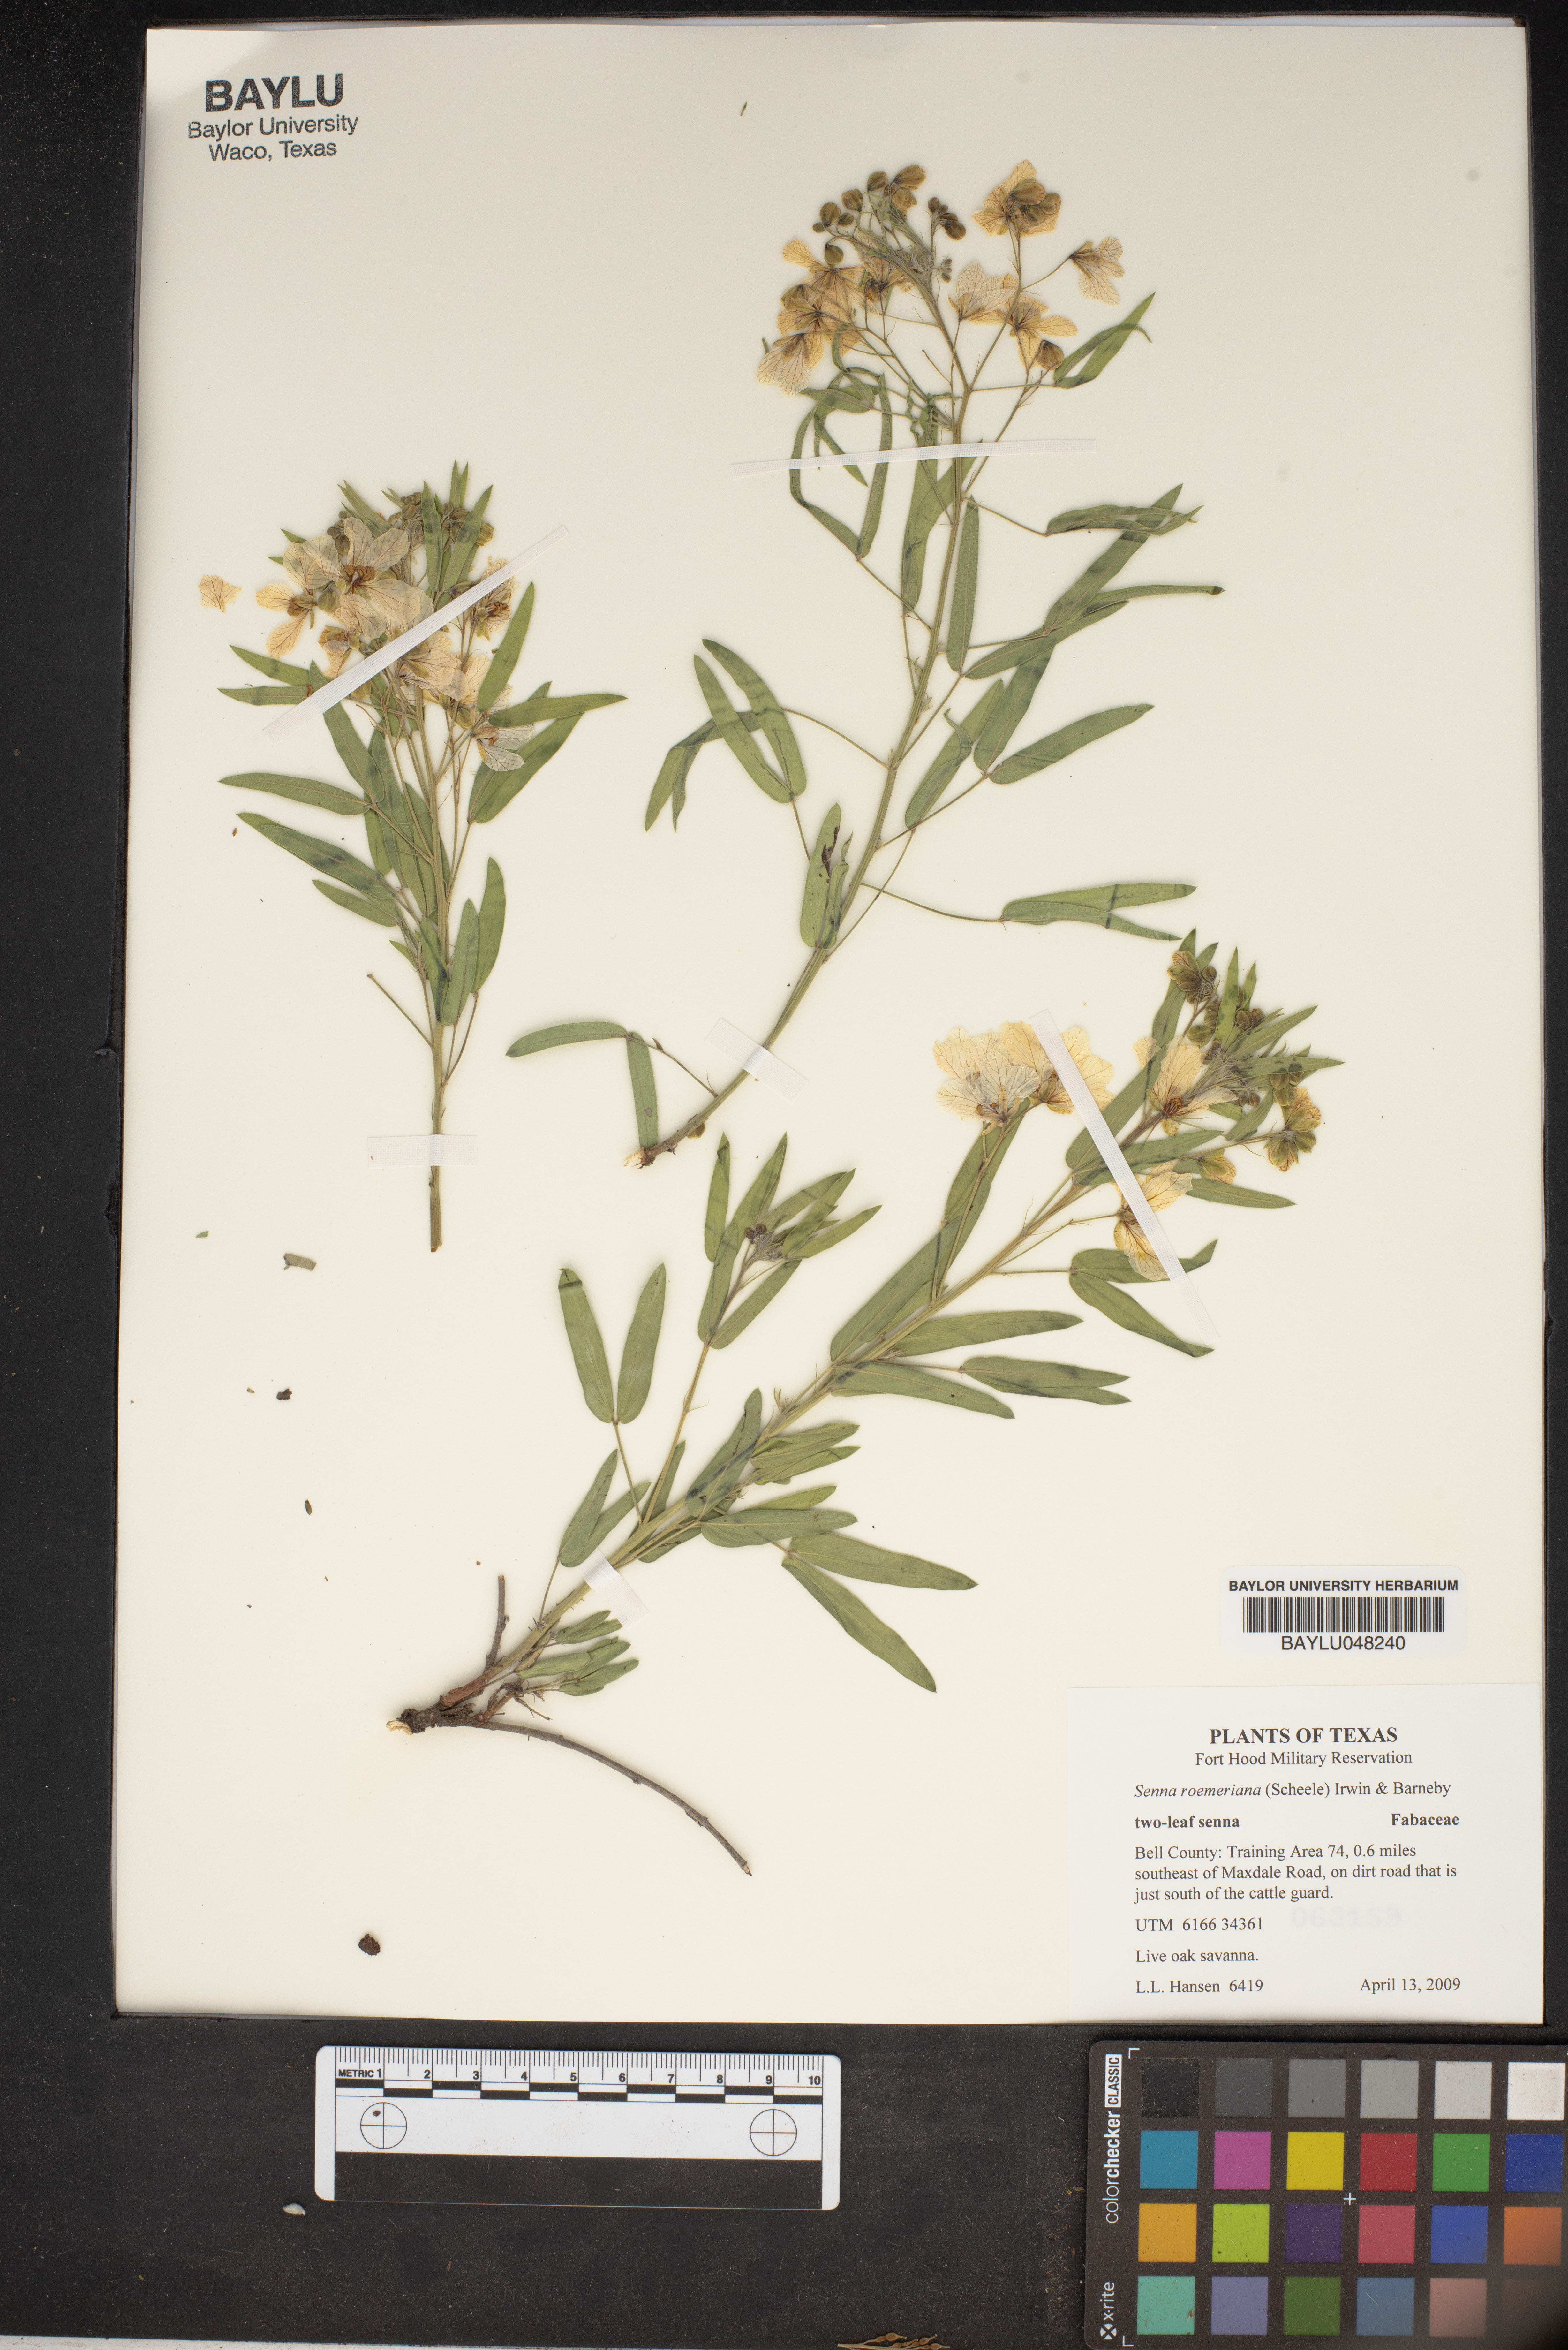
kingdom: Plantae
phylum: Tracheophyta
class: Magnoliopsida
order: Fabales
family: Fabaceae
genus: Senna
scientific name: Senna roemeriana
